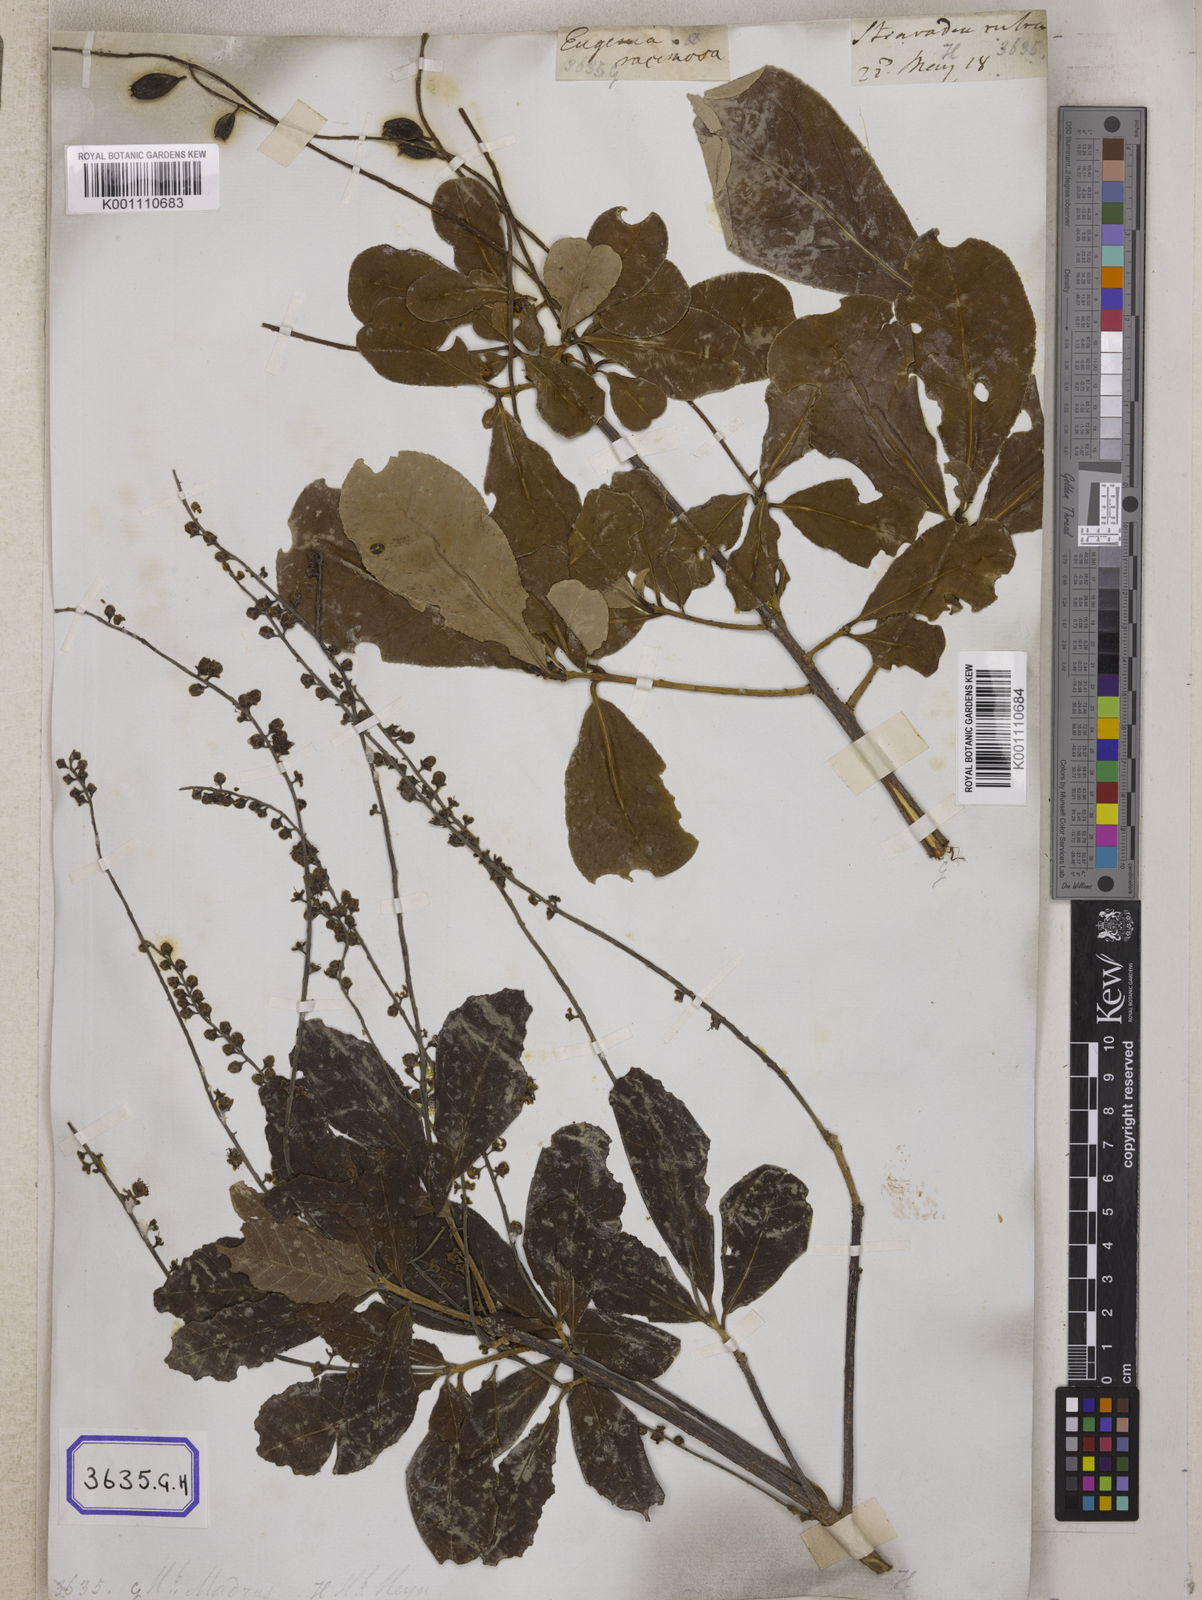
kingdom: Plantae
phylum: Tracheophyta
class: Magnoliopsida
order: Ericales
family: Lecythidaceae
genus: Barringtonia
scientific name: Barringtonia acutangula
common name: Freshwater mangrove
